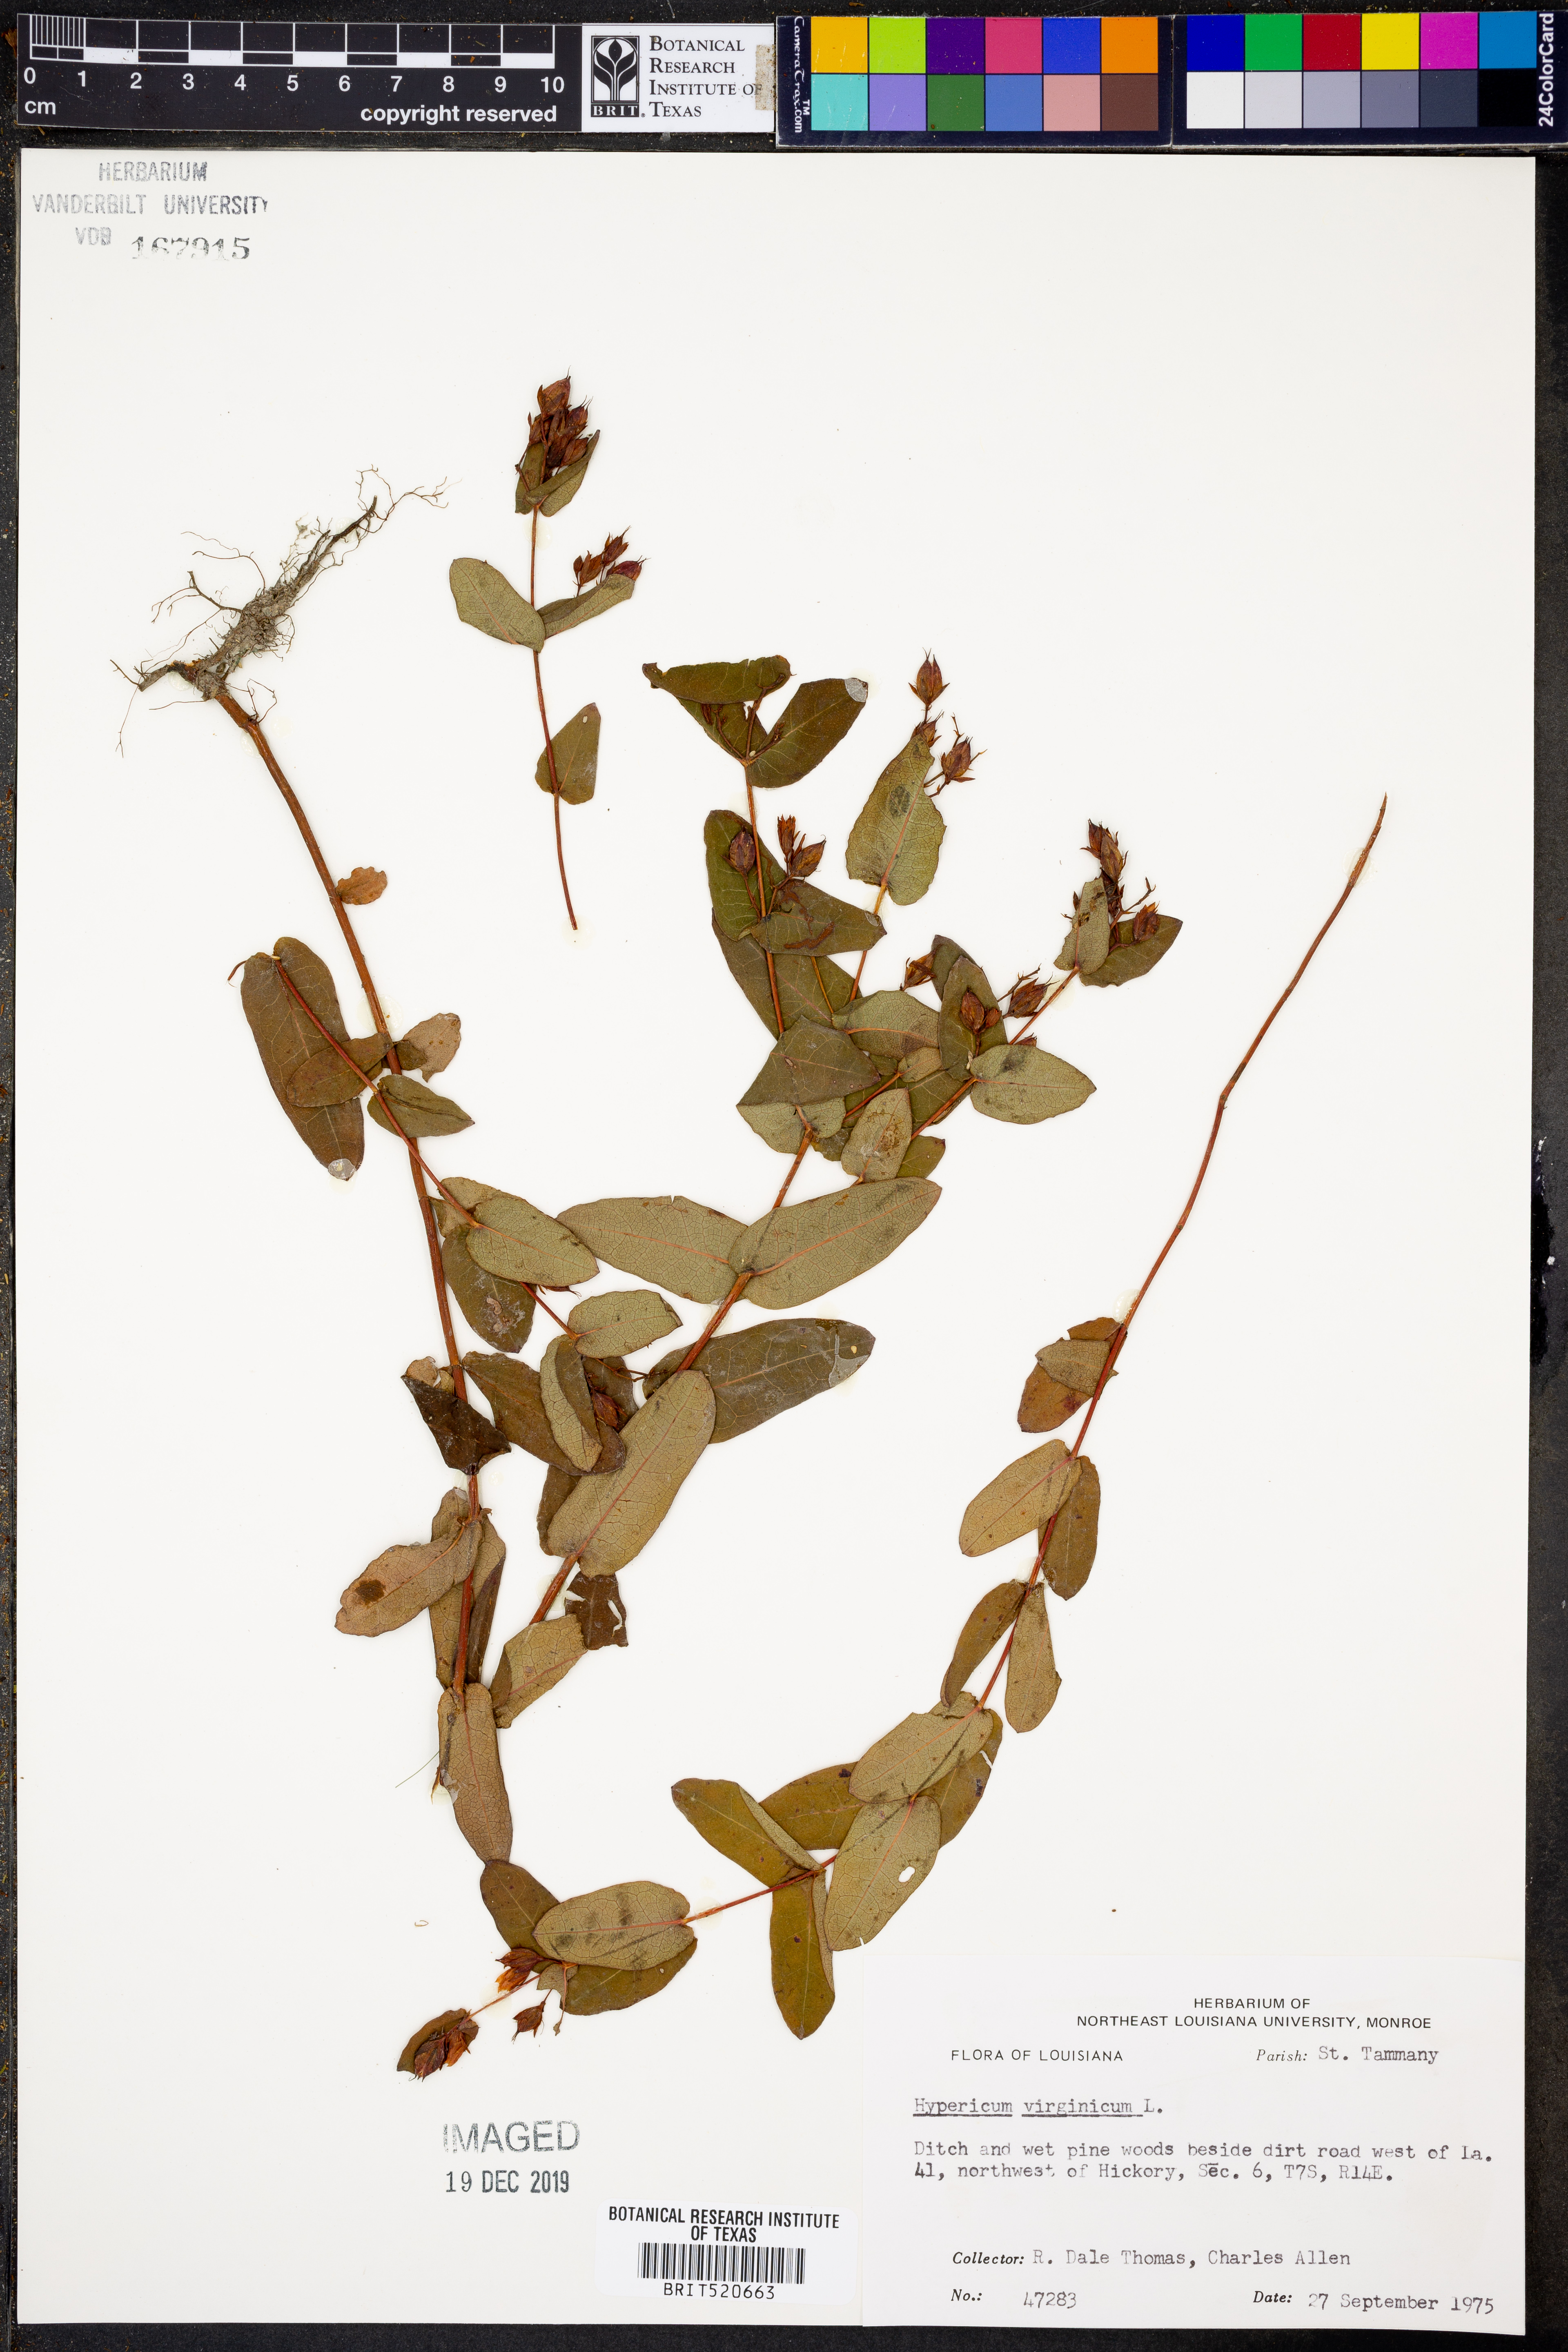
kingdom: Plantae
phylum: Tracheophyta
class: Magnoliopsida
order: Malpighiales
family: Hypericaceae
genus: Triadenum
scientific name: Triadenum virginicum
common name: Marsh st. john's-wort
